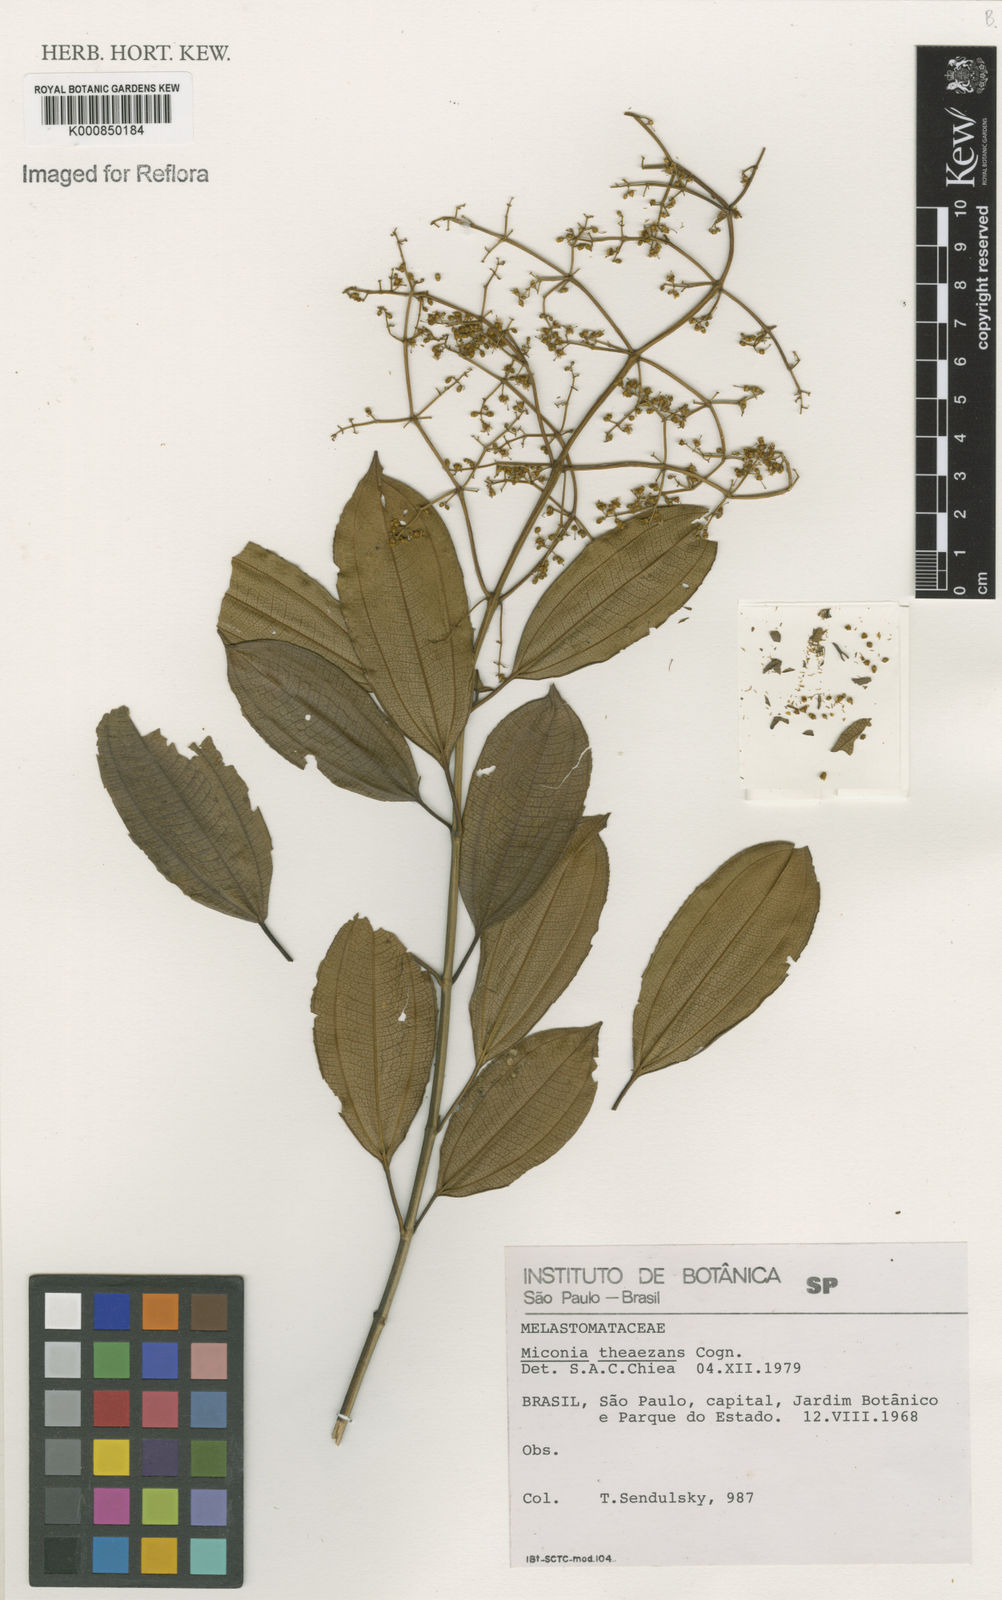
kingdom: Plantae
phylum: Tracheophyta
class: Magnoliopsida
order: Myrtales
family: Melastomataceae
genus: Miconia
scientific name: Miconia
